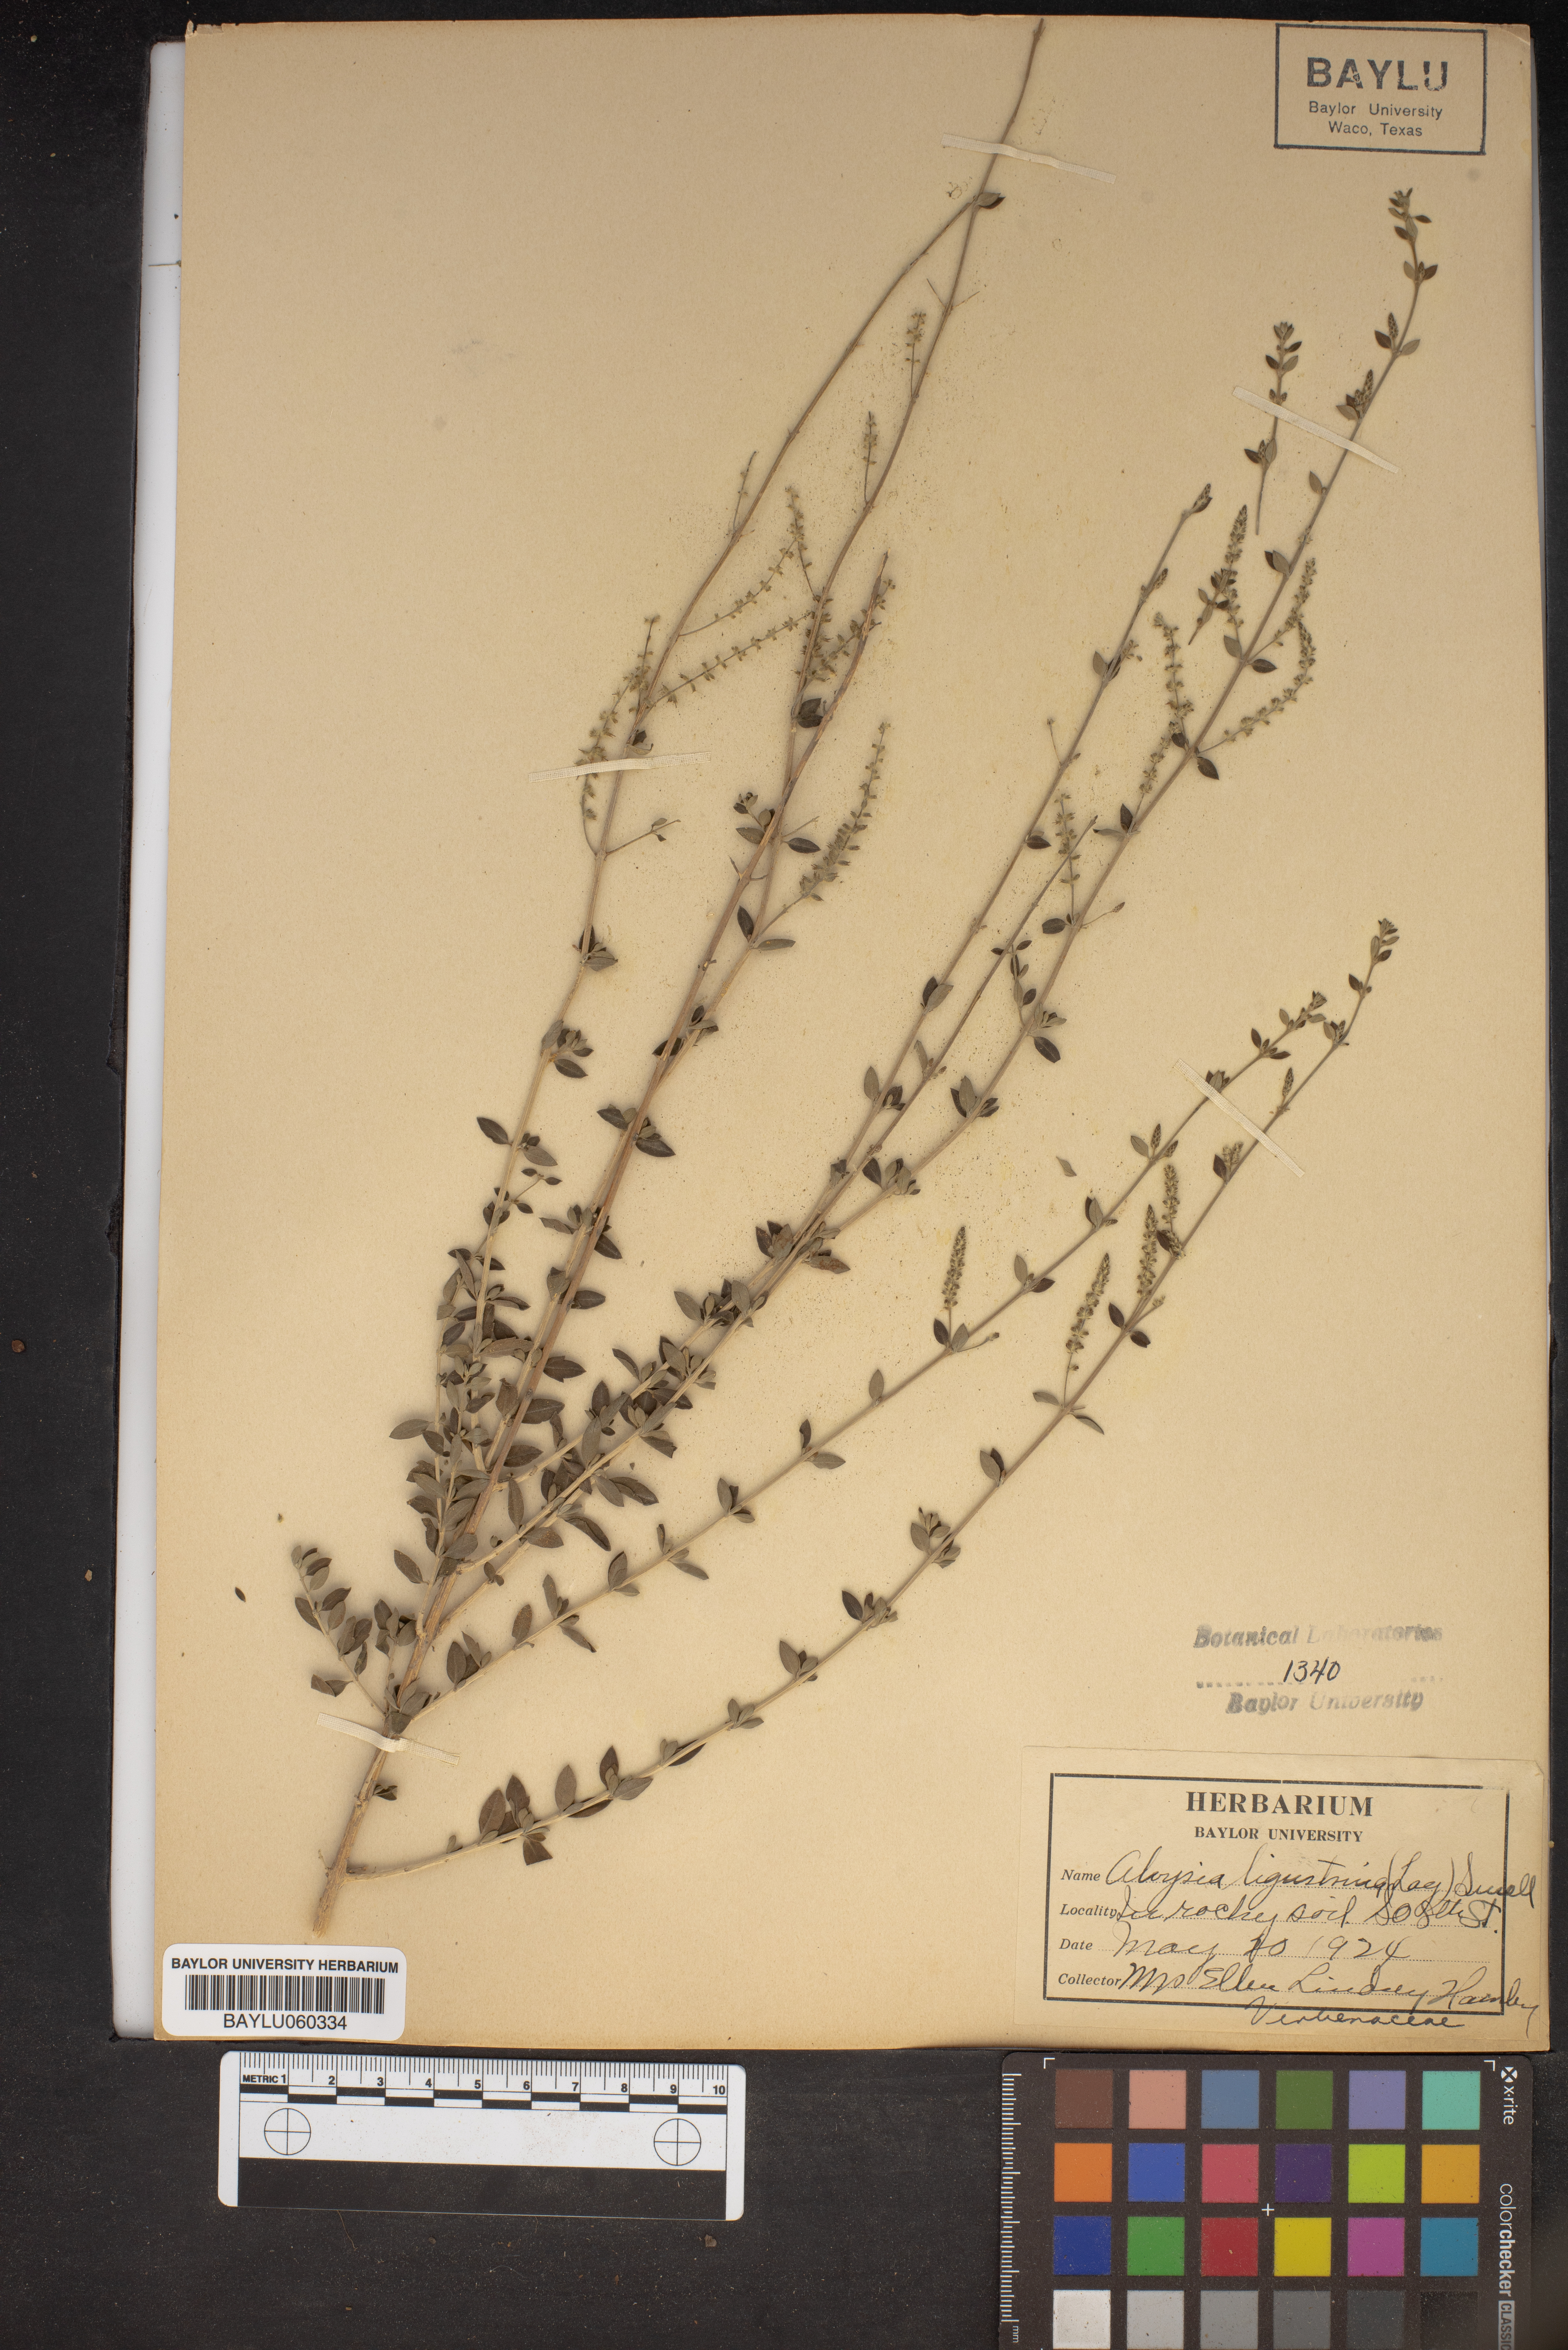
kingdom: Plantae
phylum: Tracheophyta
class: Magnoliopsida
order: Lamiales
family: Verbenaceae
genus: Mulguraea
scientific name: Mulguraea ligustrina
